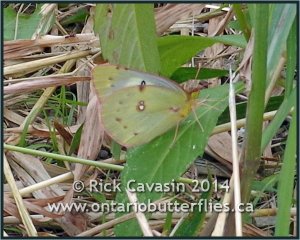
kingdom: Animalia
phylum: Arthropoda
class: Insecta
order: Lepidoptera
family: Pieridae
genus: Colias
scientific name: Colias philodice
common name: Clouded Sulphur
